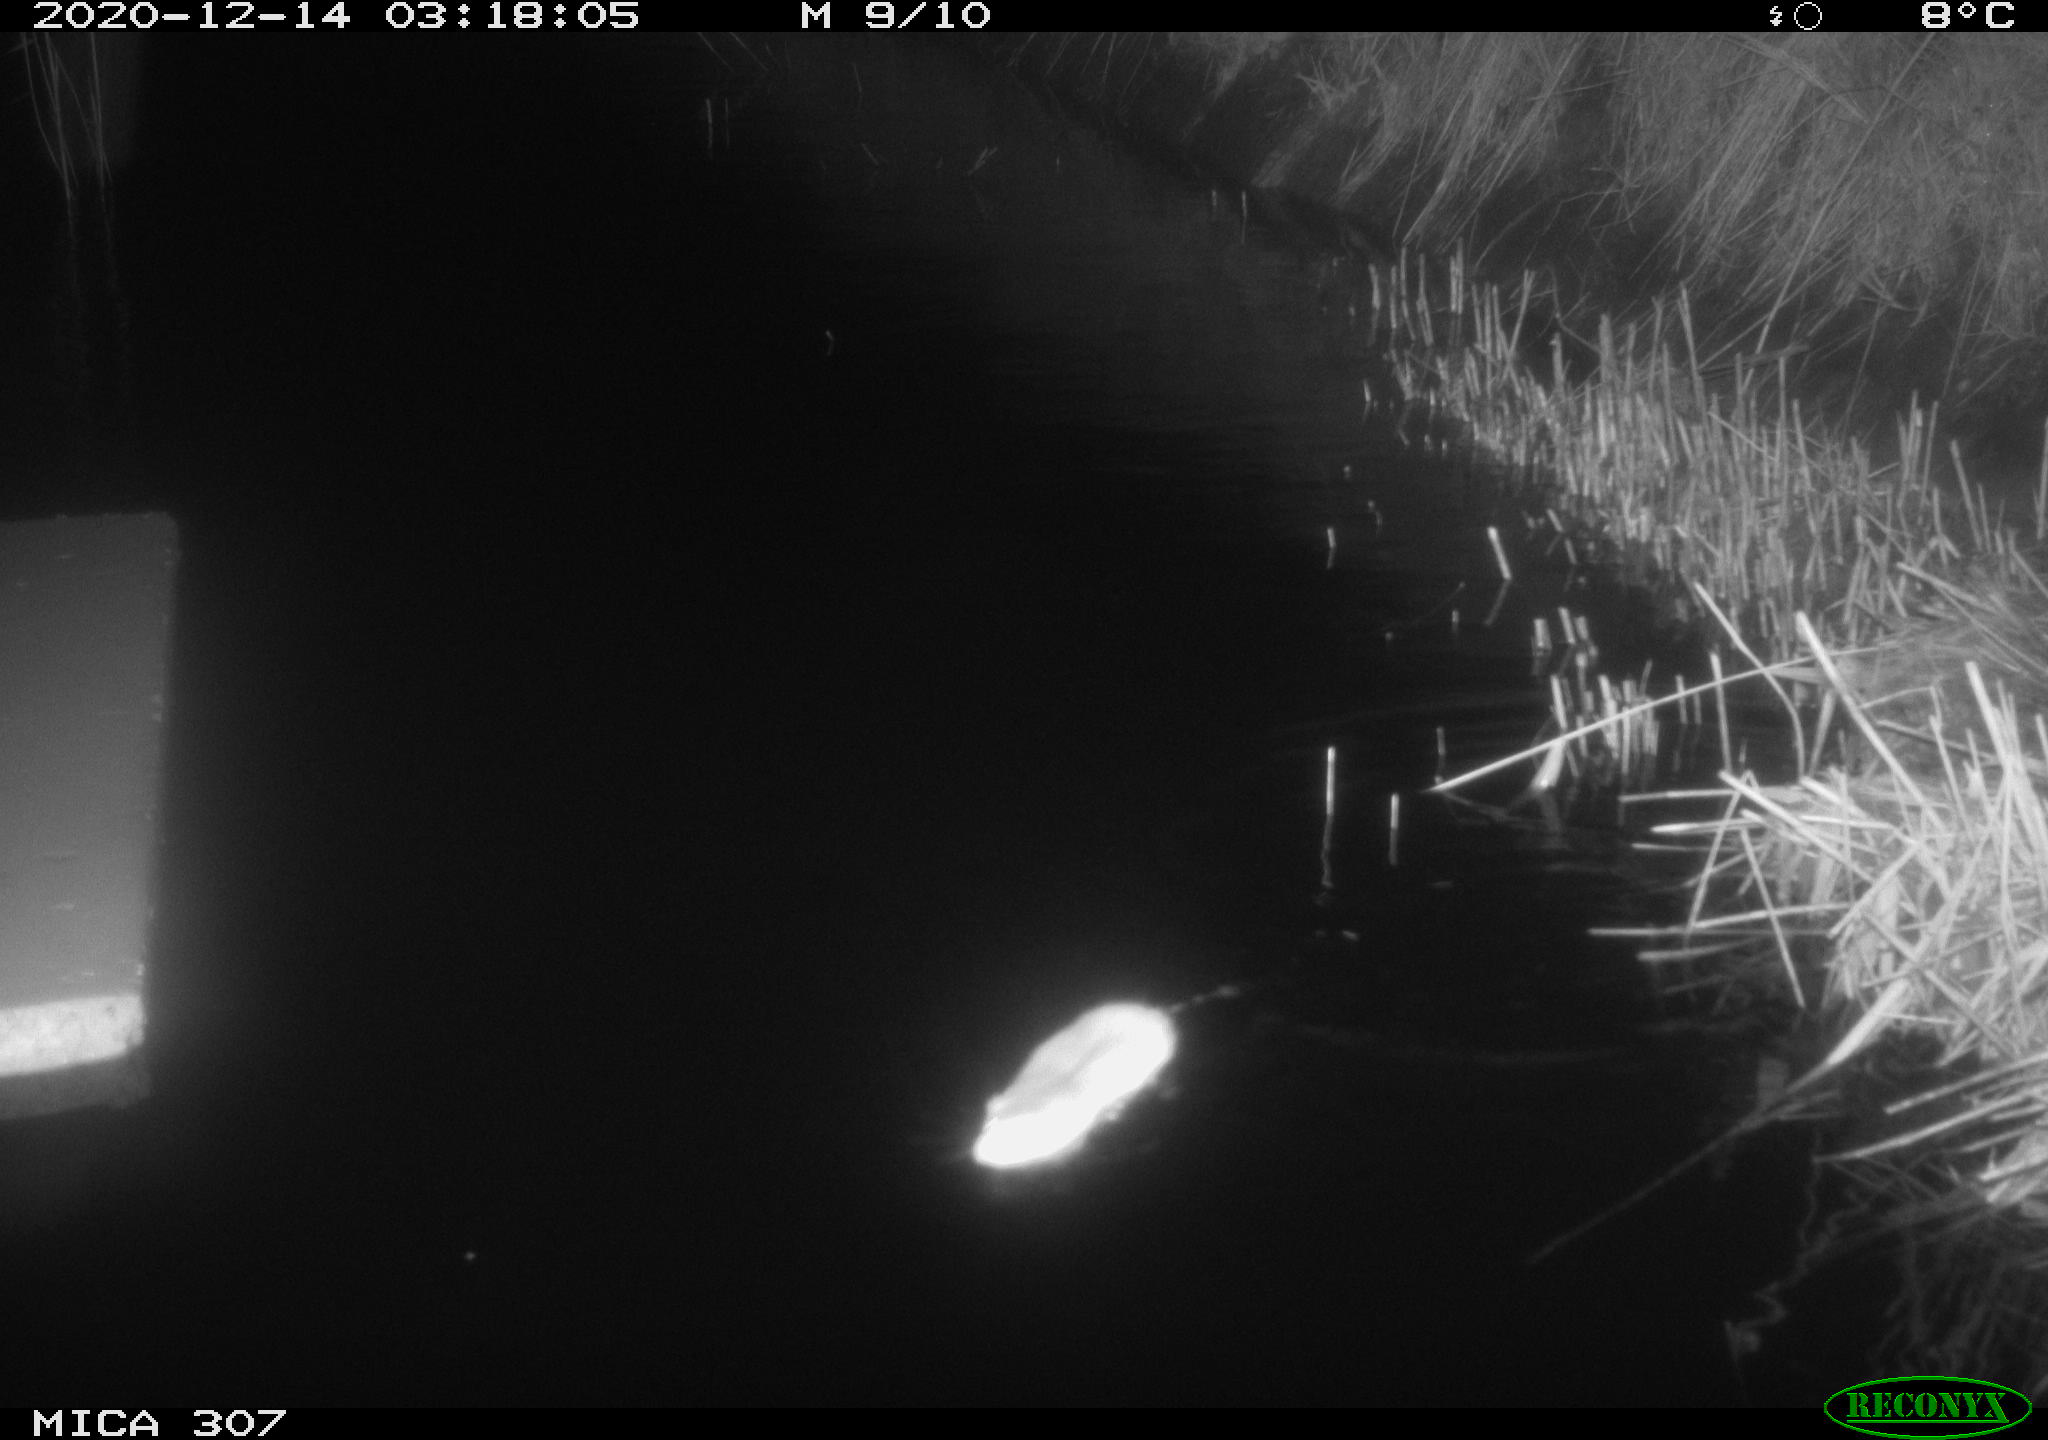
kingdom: Animalia
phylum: Chordata
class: Mammalia
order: Rodentia
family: Muridae
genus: Rattus
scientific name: Rattus norvegicus
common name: Brown rat
